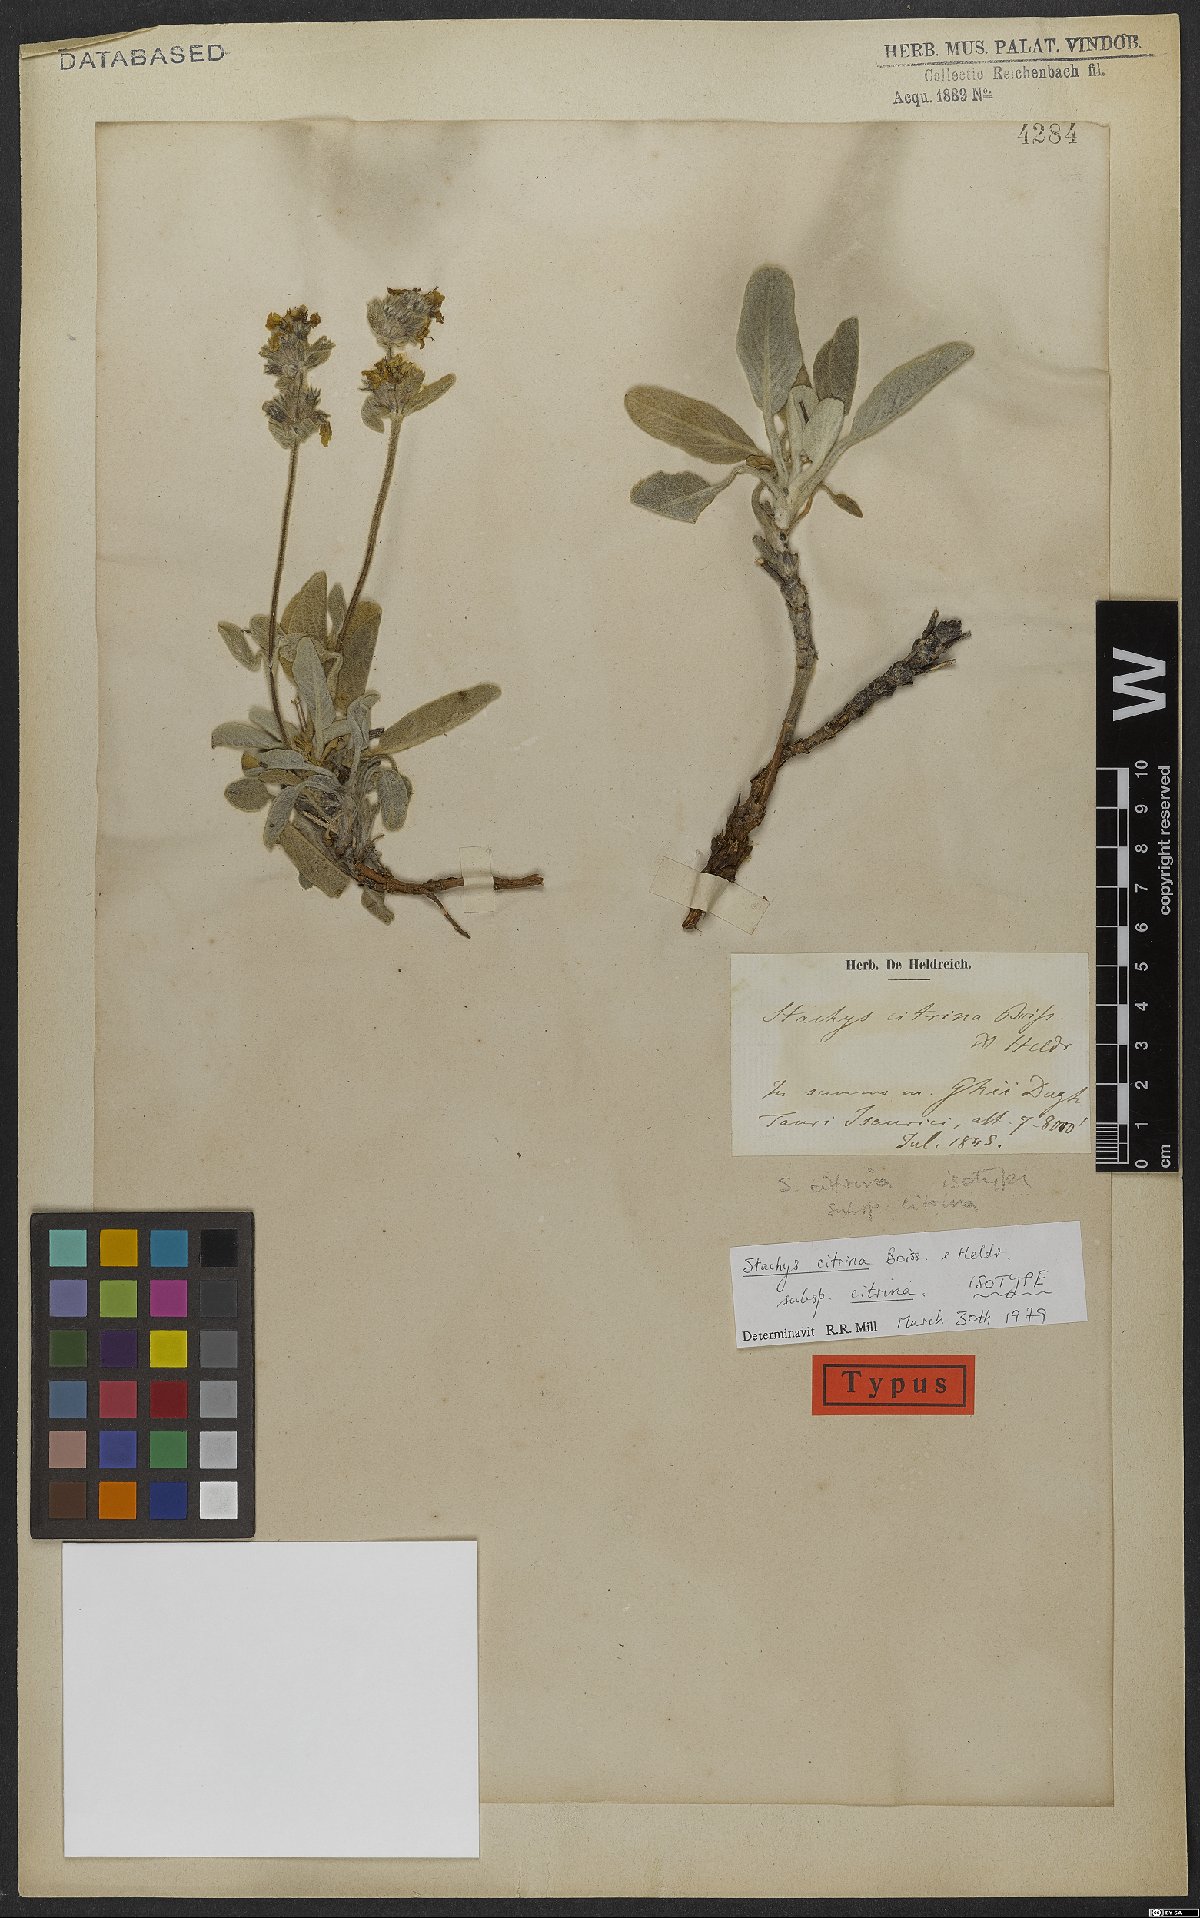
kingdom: Plantae
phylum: Tracheophyta
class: Magnoliopsida
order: Lamiales
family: Lamiaceae
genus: Stachys
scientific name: Stachys citrina
